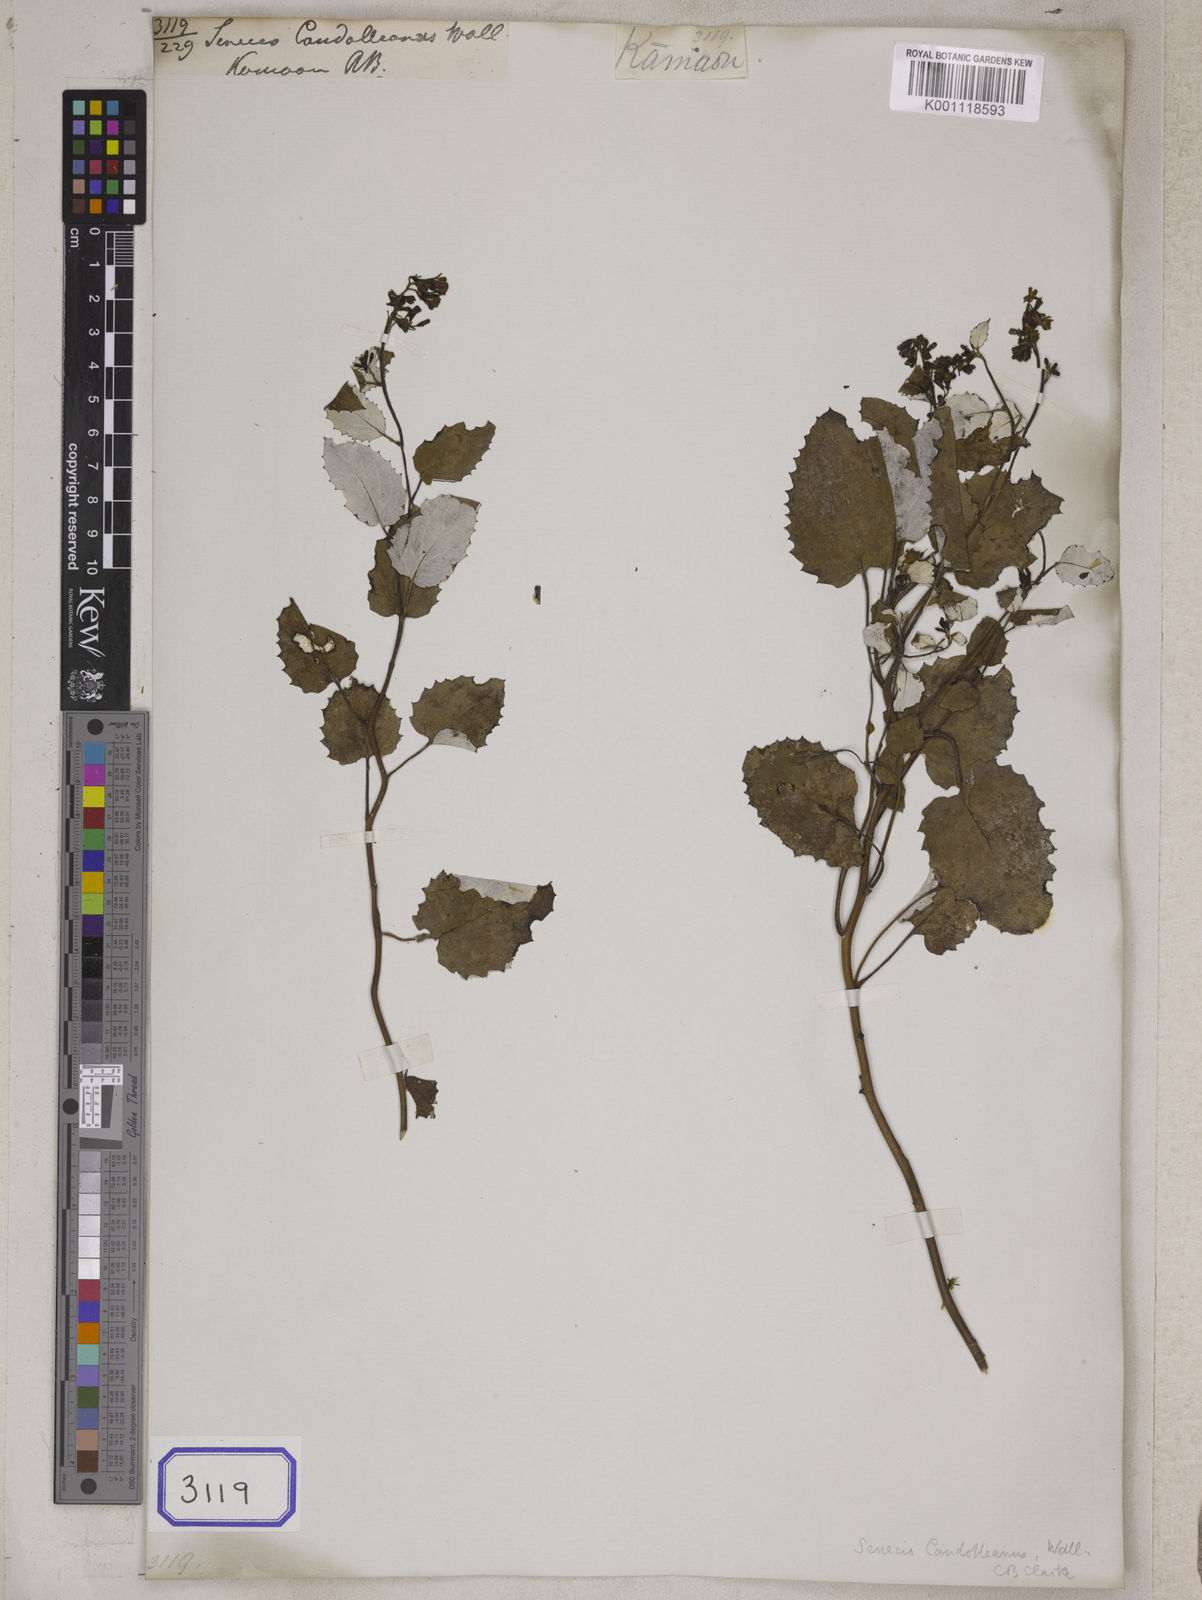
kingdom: Plantae
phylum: Tracheophyta
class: Magnoliopsida
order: Asterales
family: Asteraceae
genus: Senecio
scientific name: Senecio candolleanus
